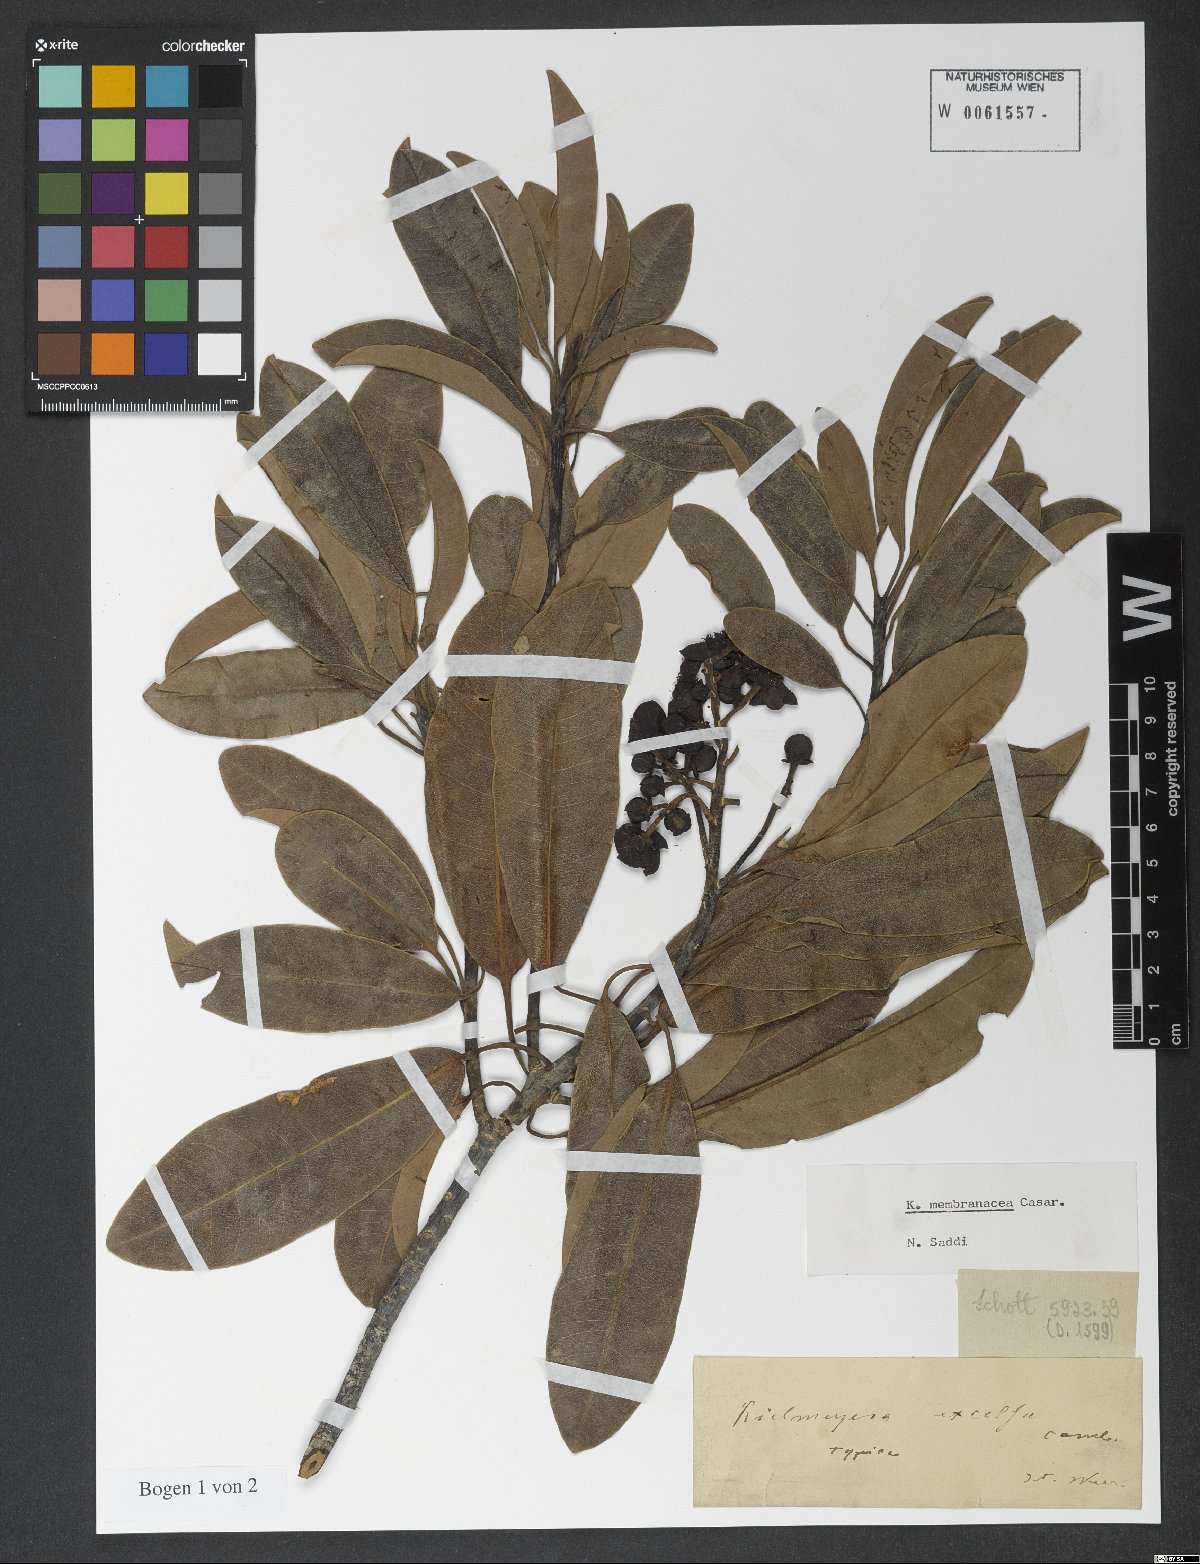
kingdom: Plantae
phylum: Tracheophyta
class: Magnoliopsida
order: Malpighiales
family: Calophyllaceae
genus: Kielmeyera
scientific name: Kielmeyera membranacea
